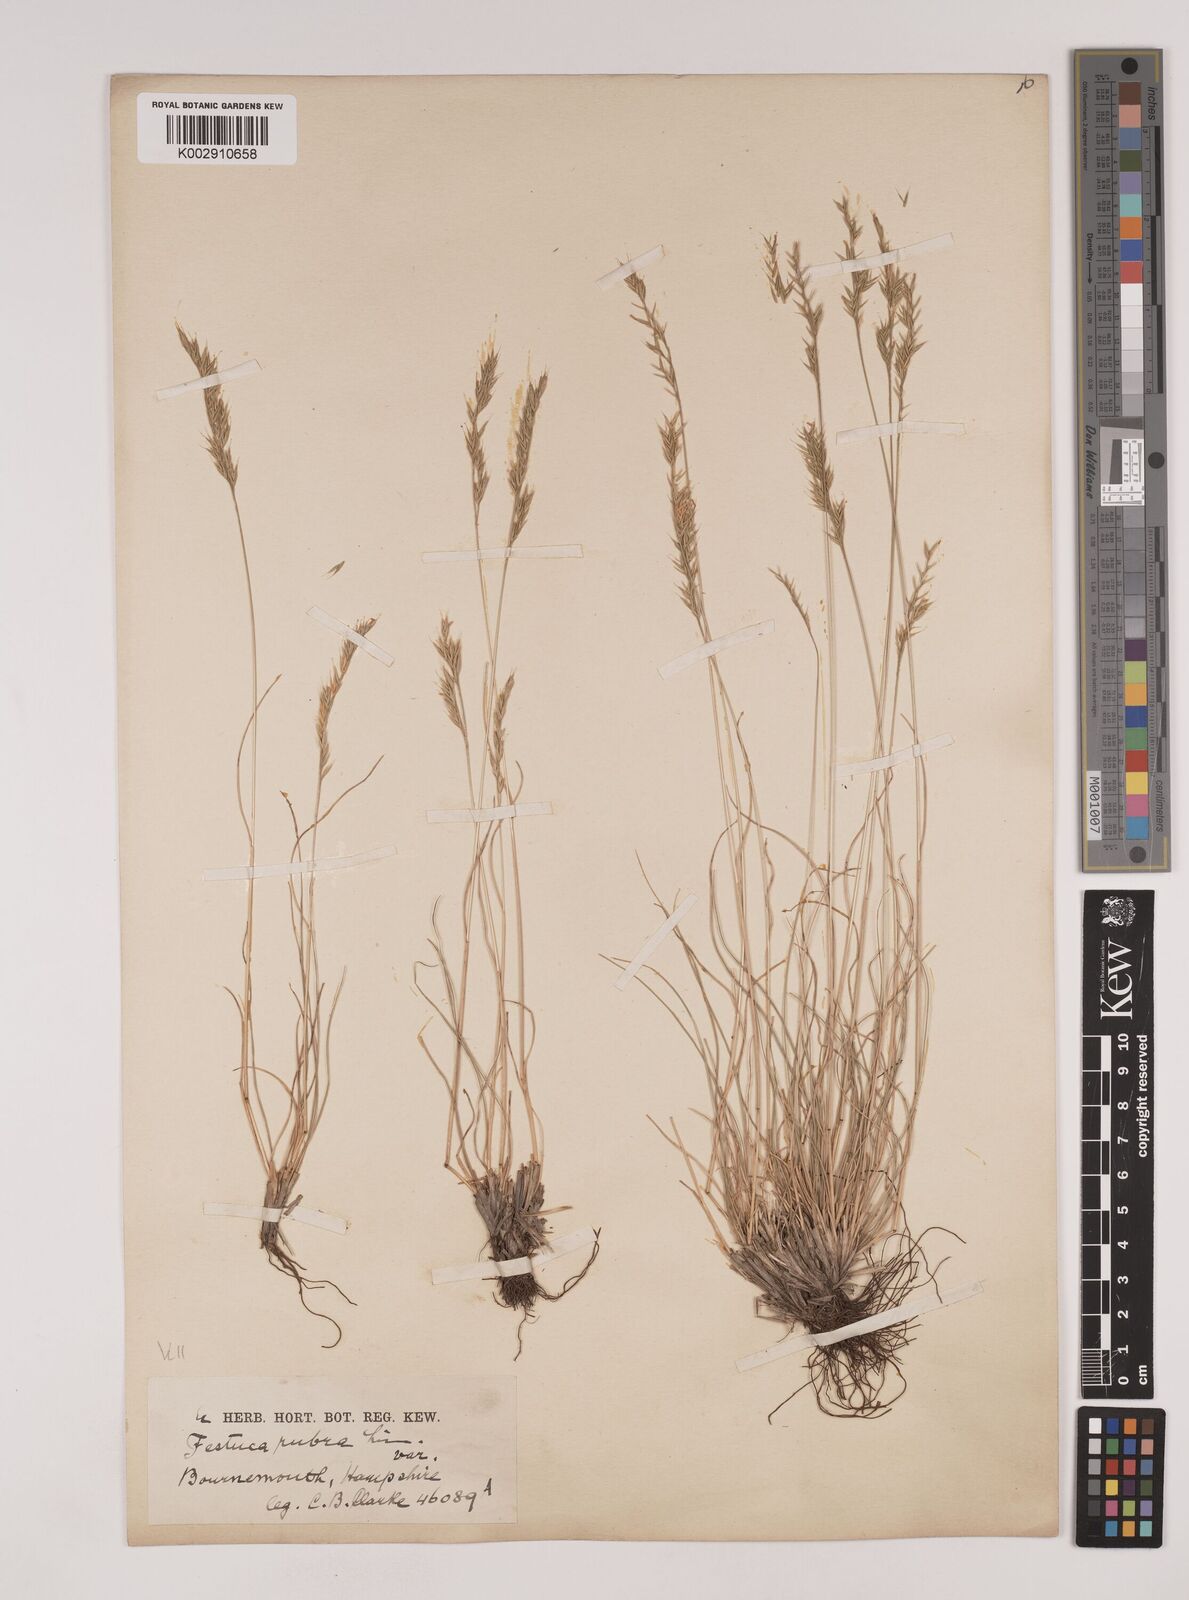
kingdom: Plantae
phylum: Tracheophyta
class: Liliopsida
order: Poales
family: Poaceae
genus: Festuca
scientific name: Festuca rubra
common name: Red fescue
